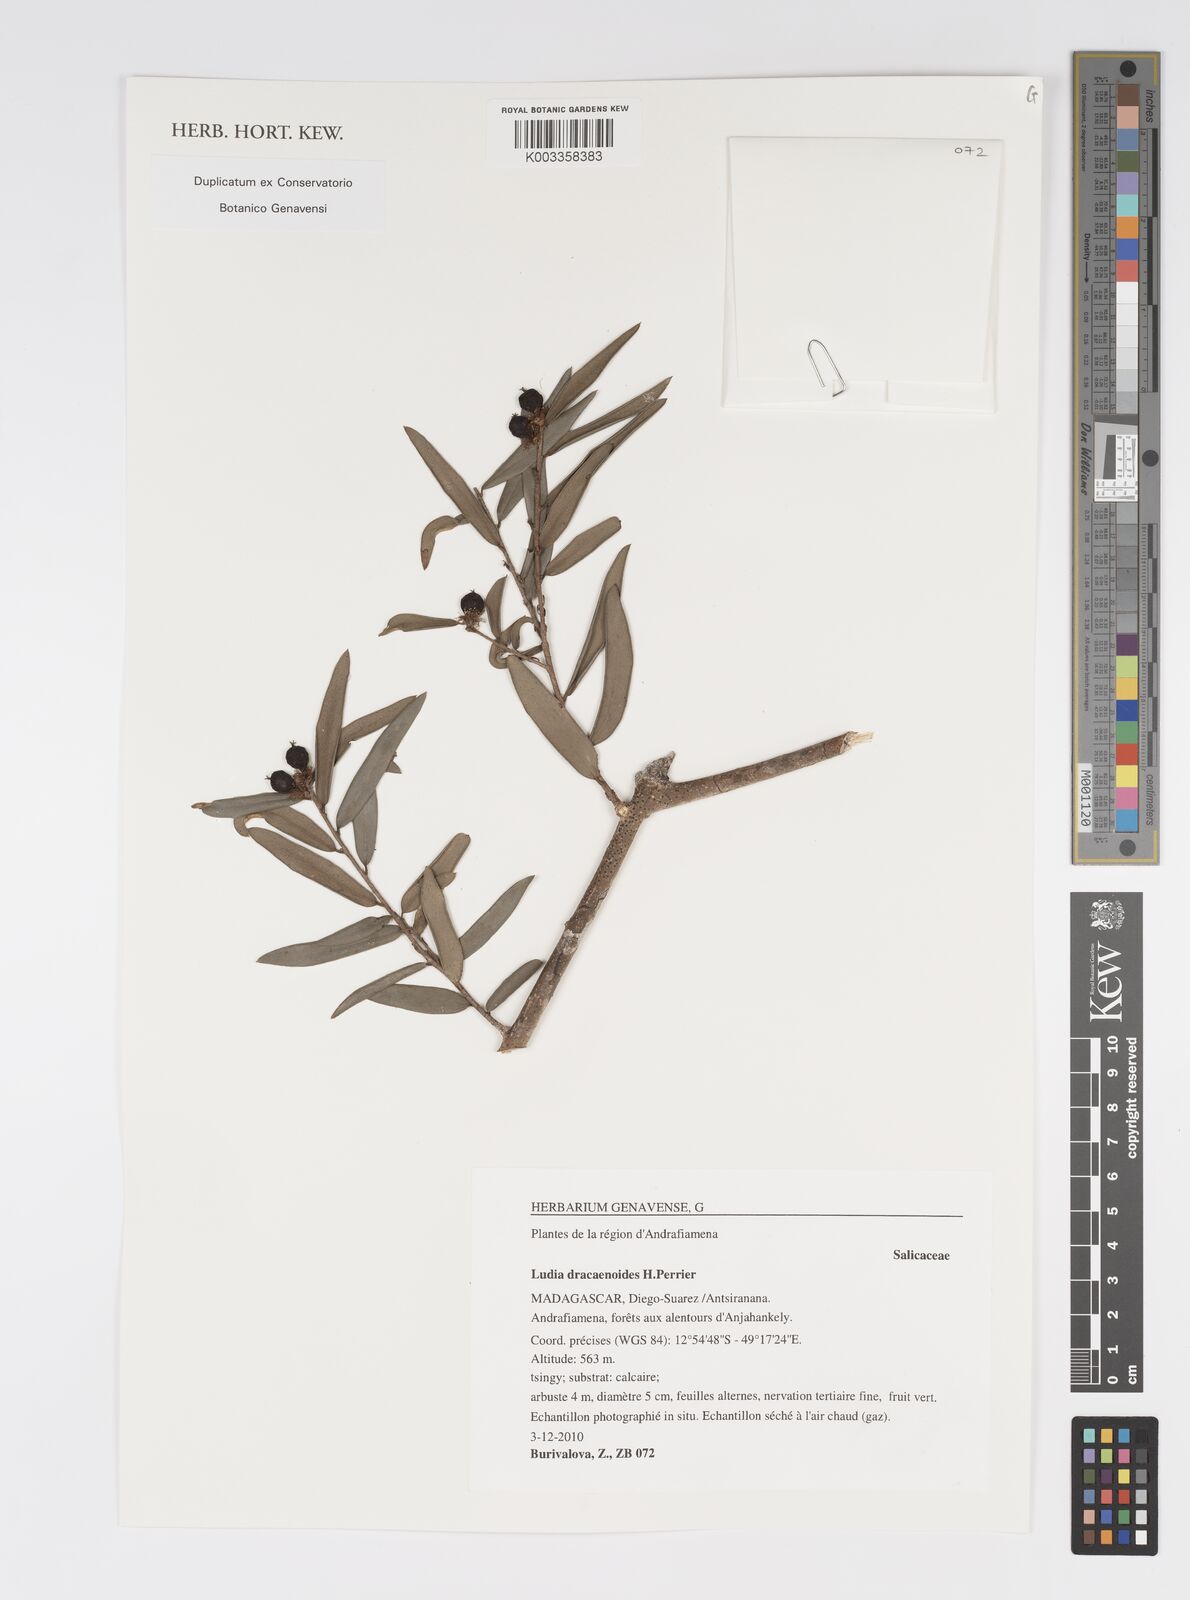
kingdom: Plantae
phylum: Tracheophyta
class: Magnoliopsida
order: Malpighiales
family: Salicaceae
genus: Ludia
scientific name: Ludia dracaenoides
